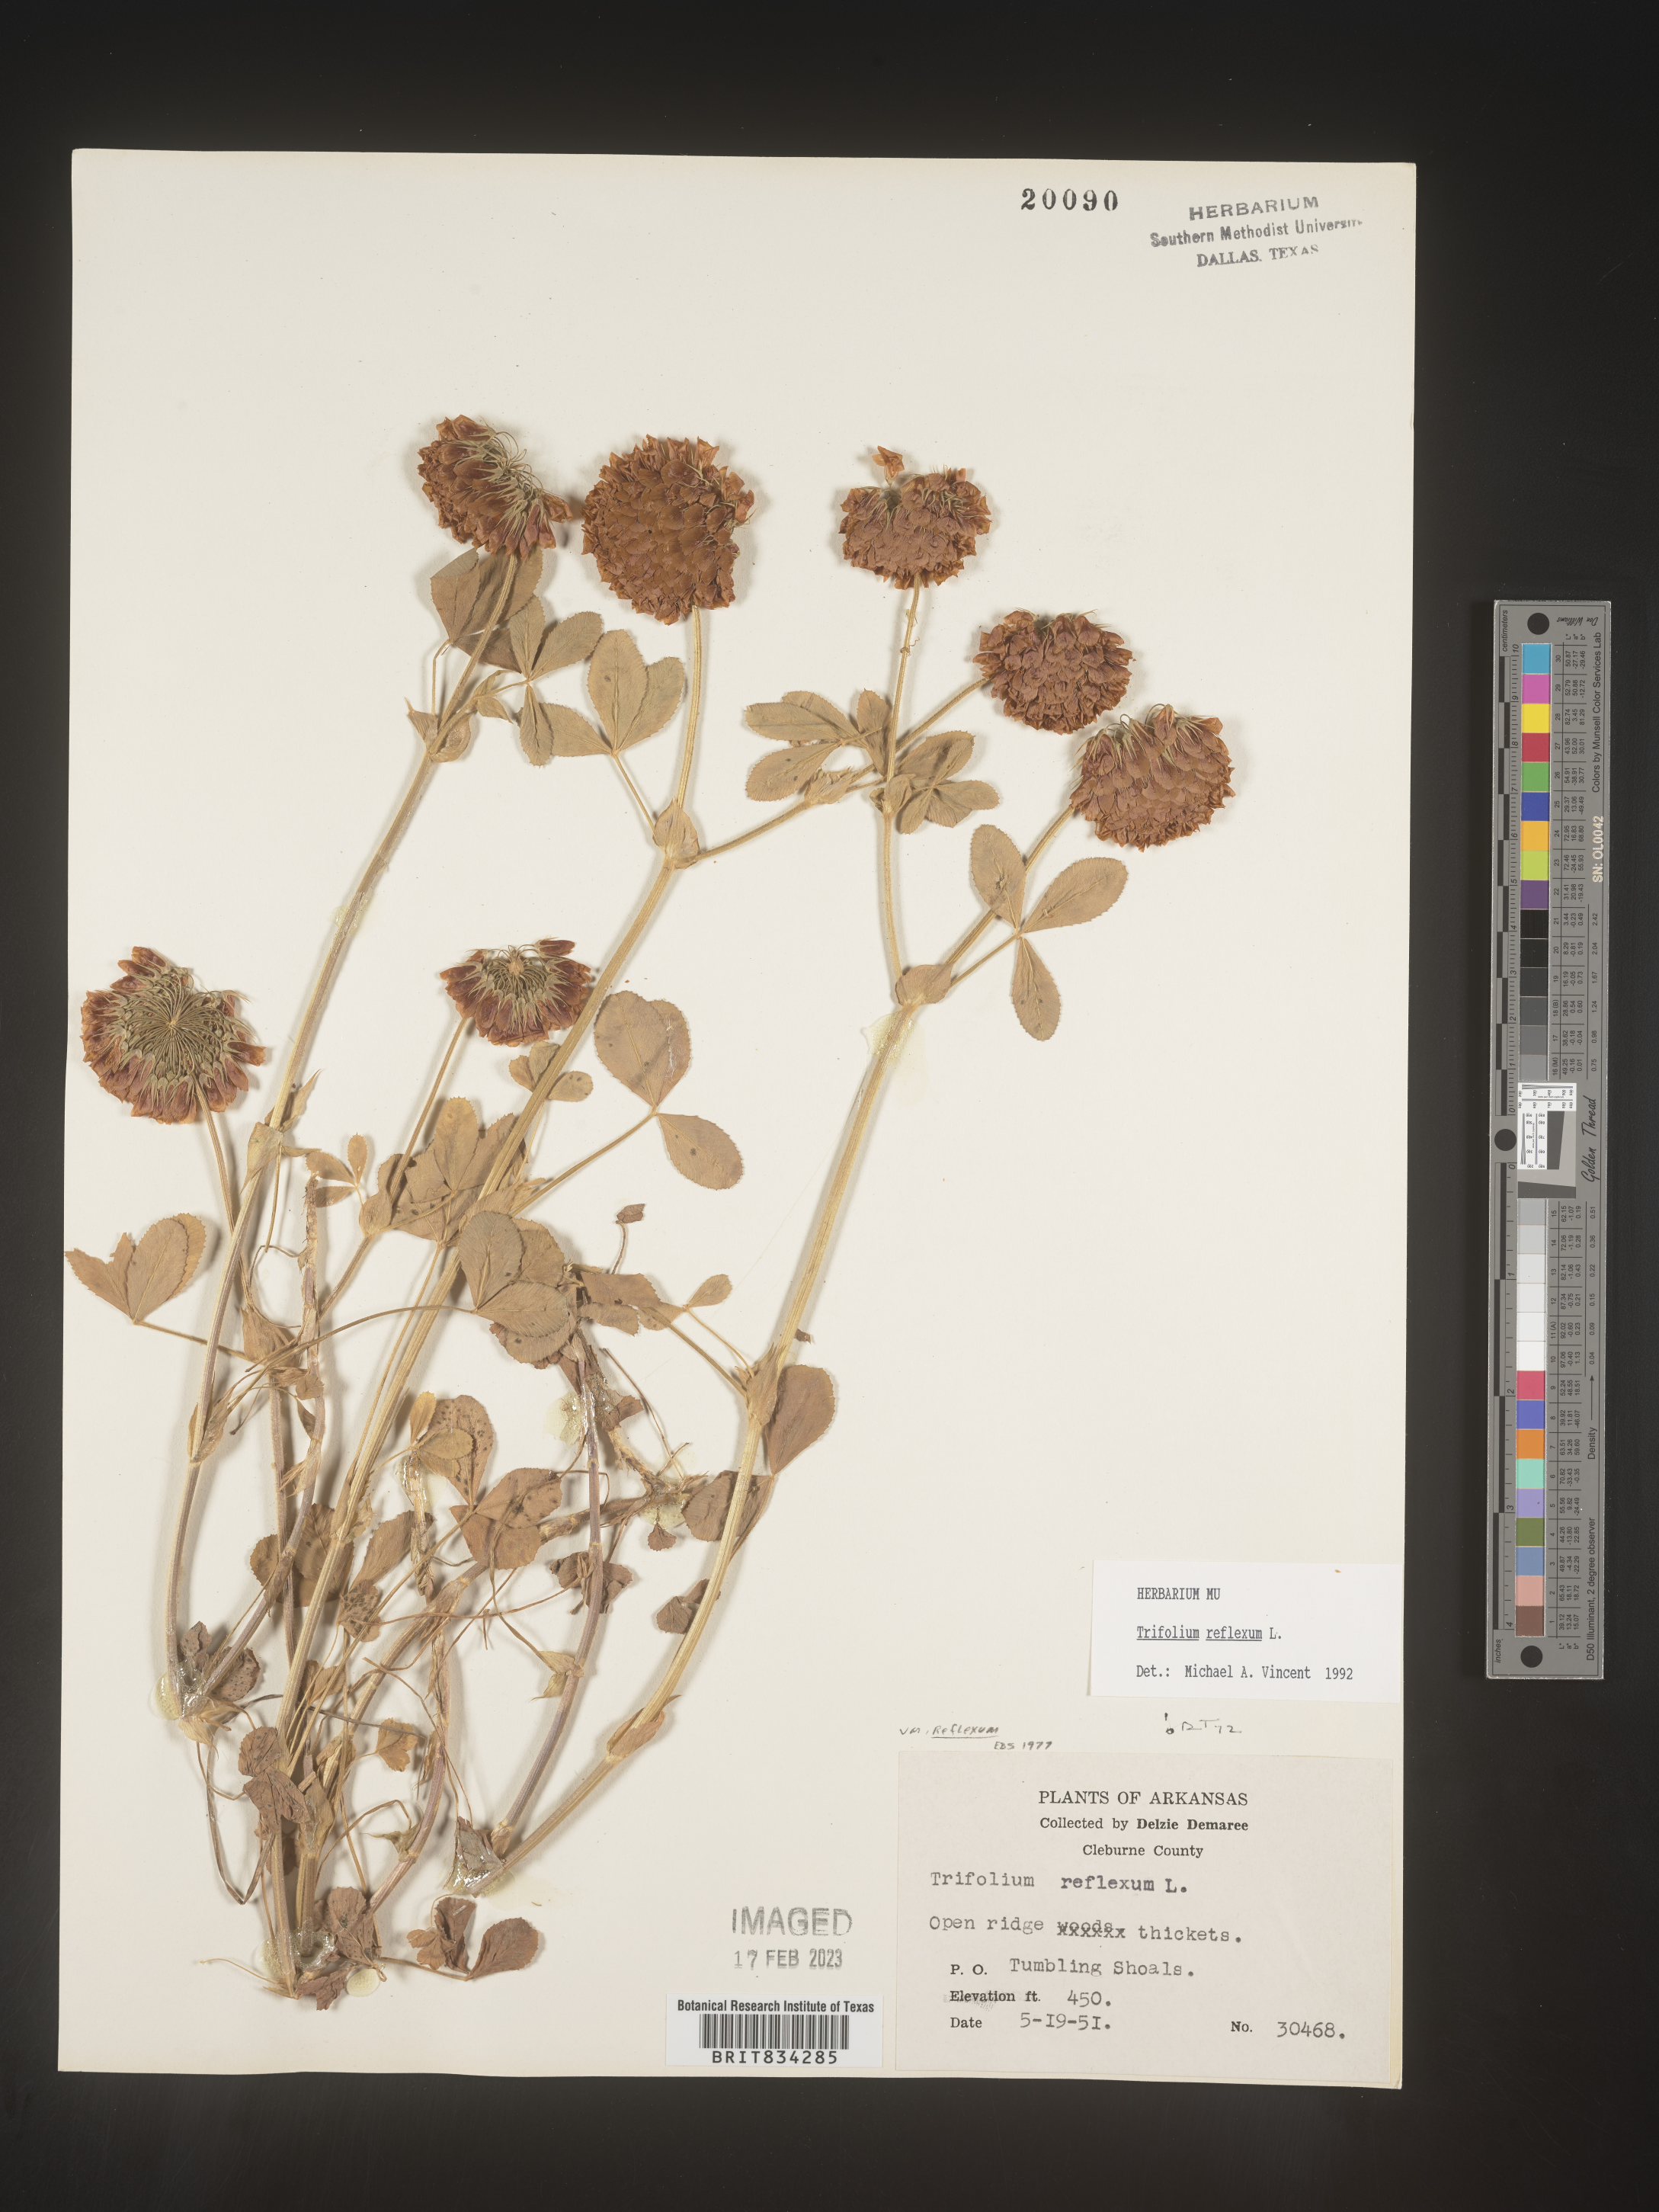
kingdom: Plantae
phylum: Tracheophyta
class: Magnoliopsida
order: Fabales
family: Fabaceae
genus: Trifolium
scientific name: Trifolium reflexum
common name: Buffalo clover
